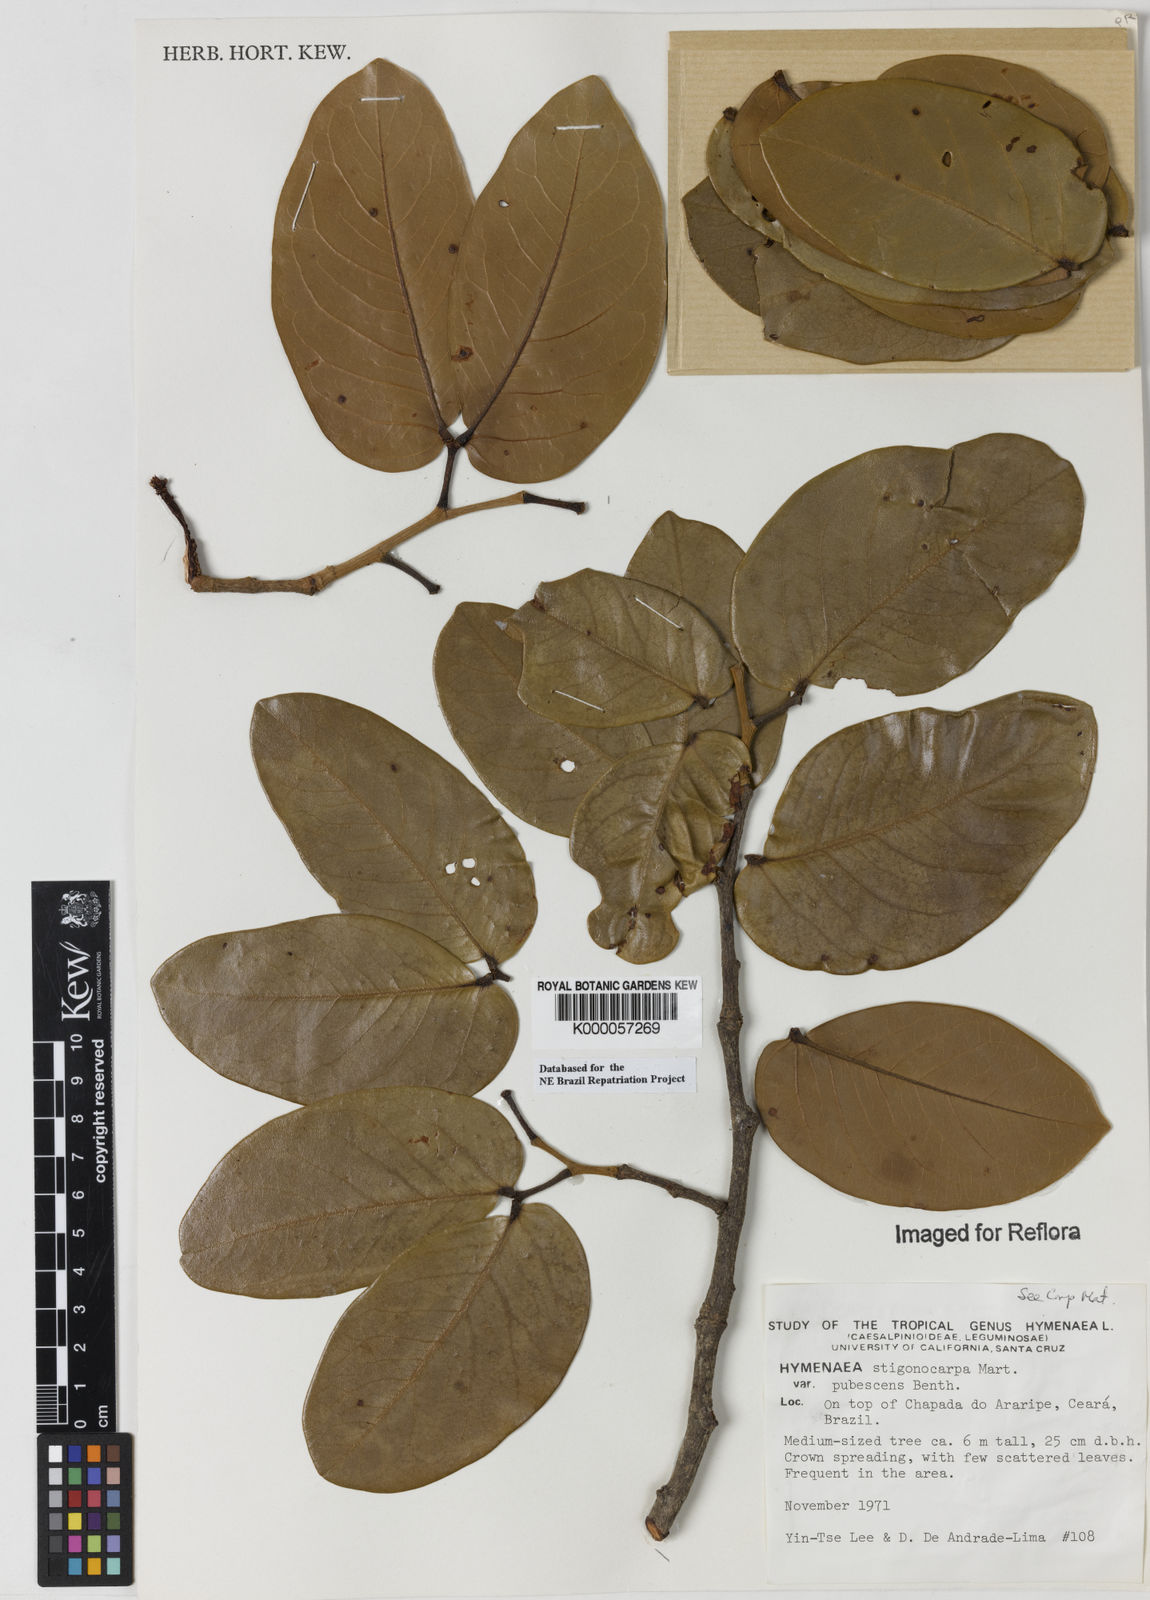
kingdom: Plantae
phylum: Tracheophyta
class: Magnoliopsida
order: Fabales
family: Fabaceae
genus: Hymenaea
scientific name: Hymenaea stigonocarpa
